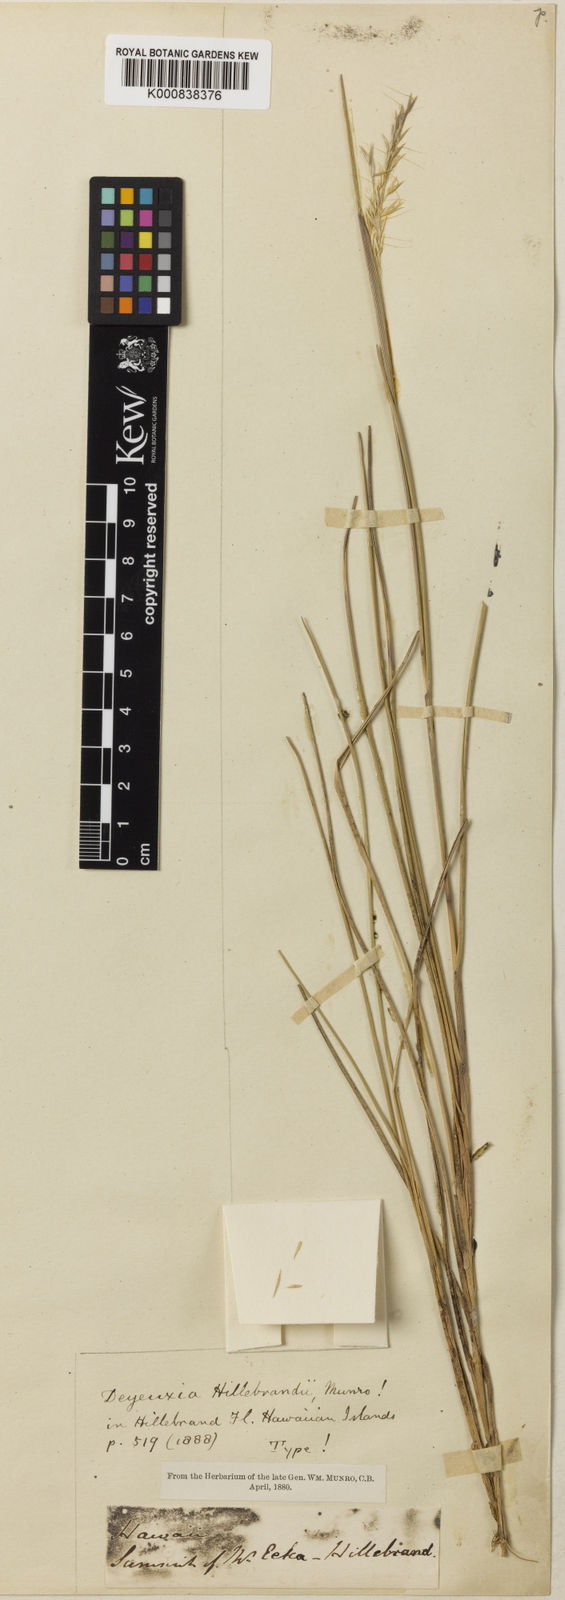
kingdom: Plantae
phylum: Tracheophyta
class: Liliopsida
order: Poales
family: Poaceae
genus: Calamagrostis
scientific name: Calamagrostis hillebrandii
